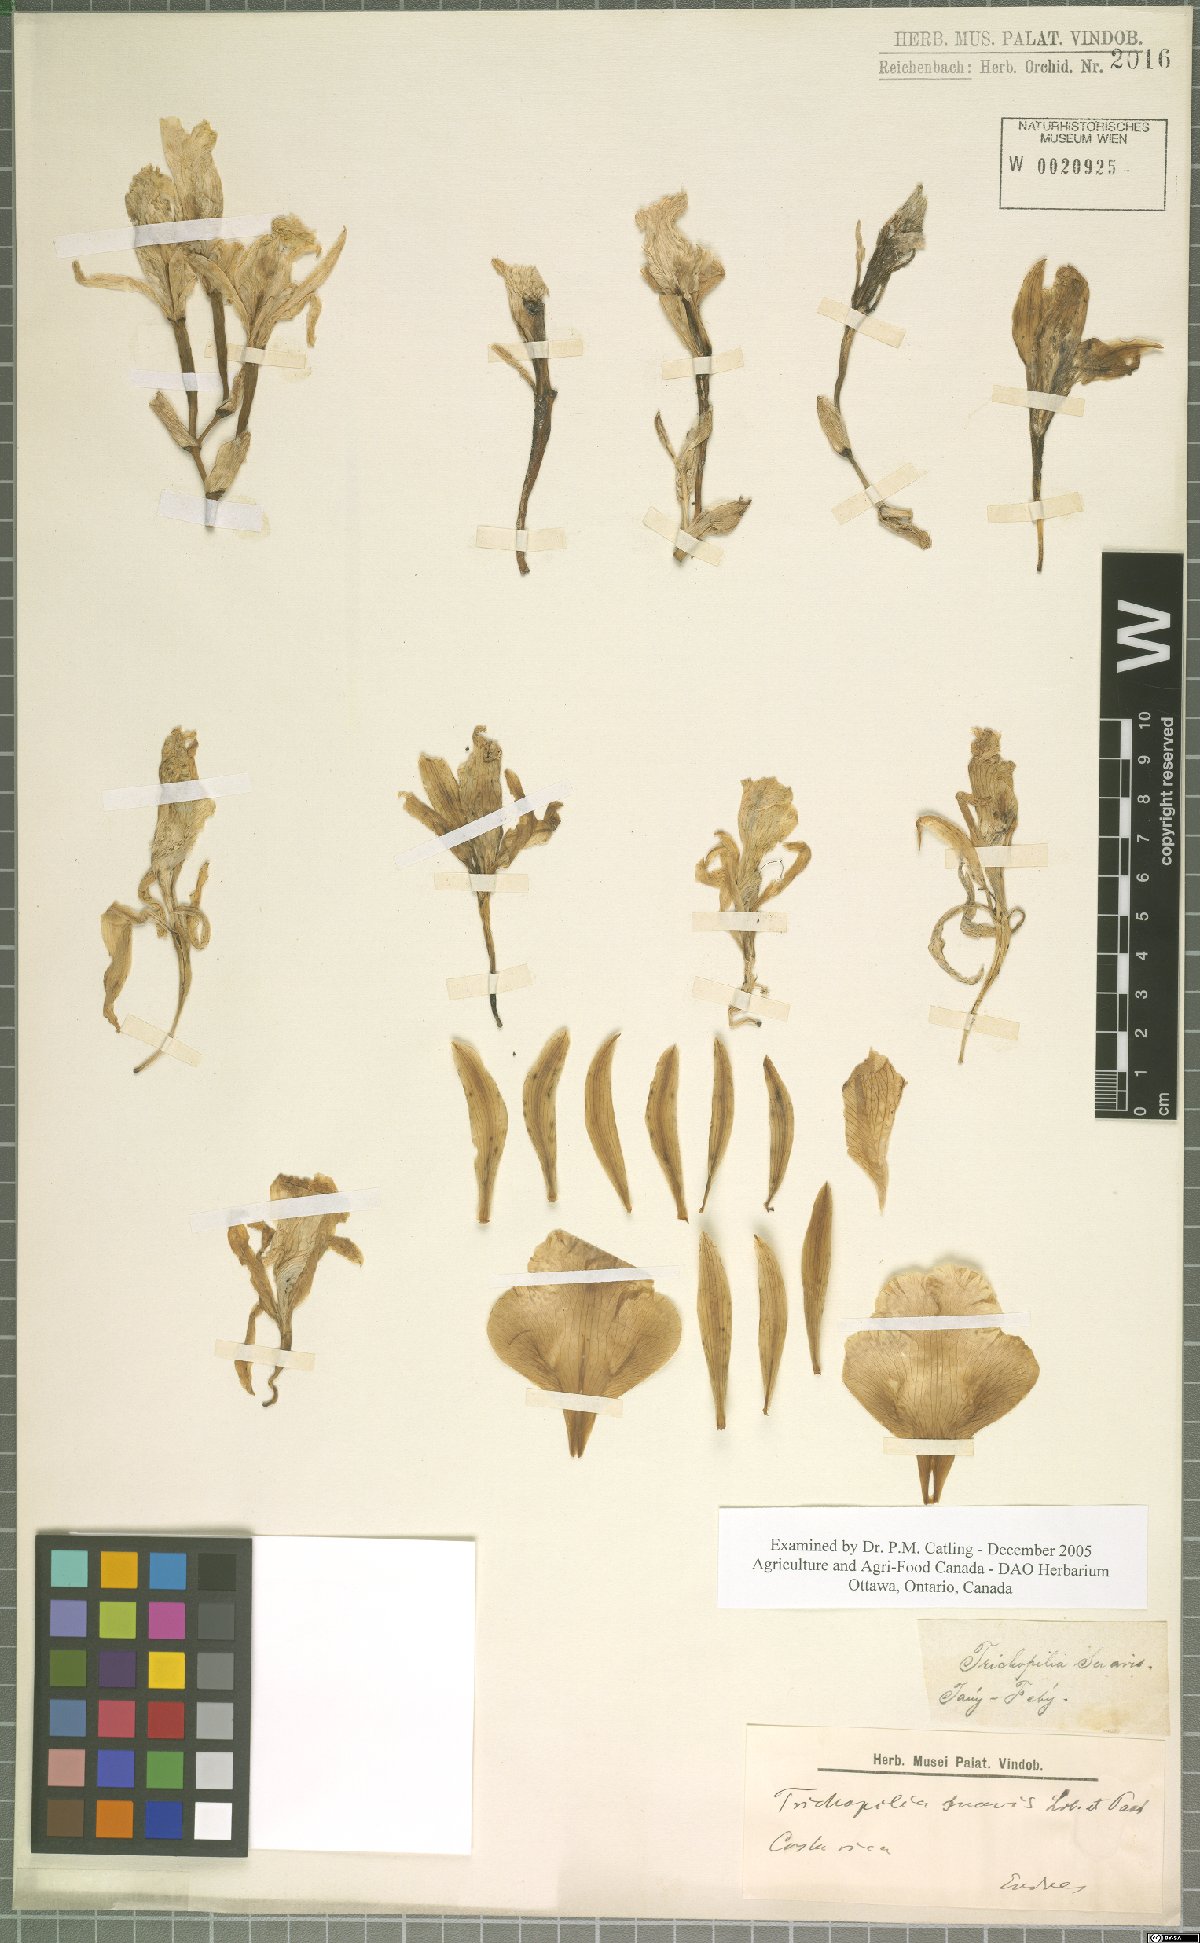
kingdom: Plantae
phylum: Tracheophyta
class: Liliopsida
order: Asparagales
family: Orchidaceae
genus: Trichopilia
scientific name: Trichopilia suavis
